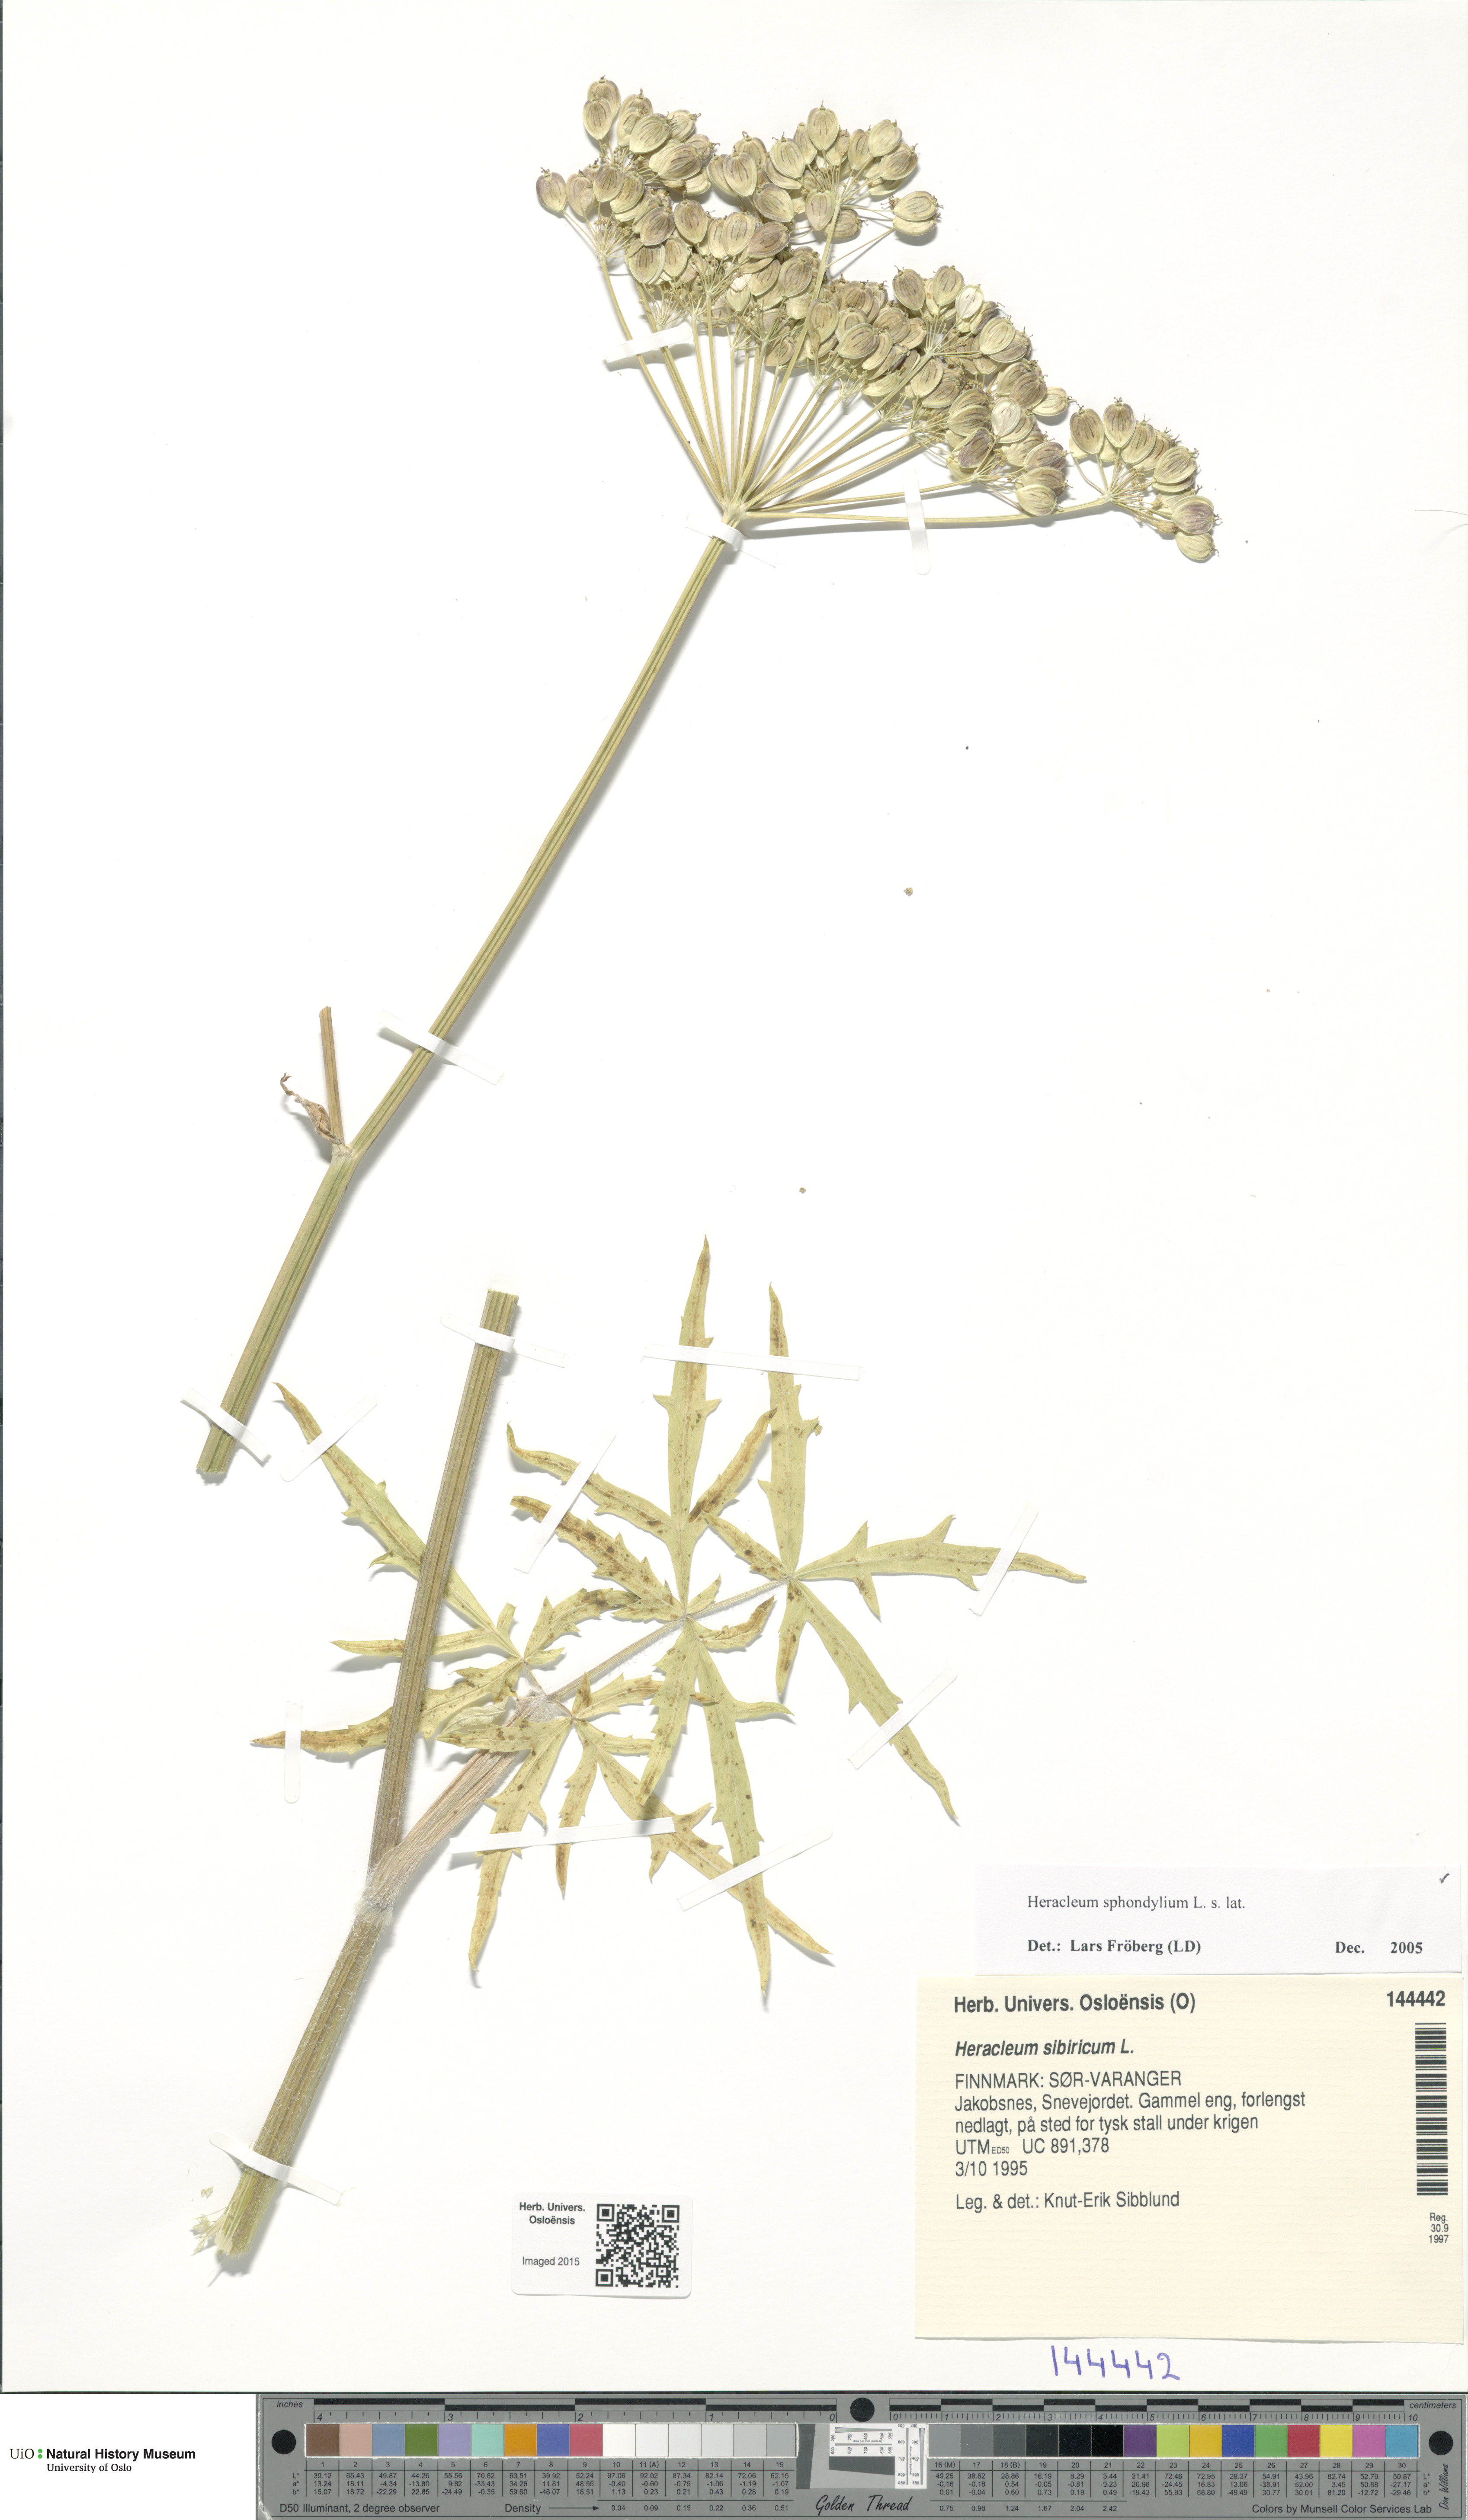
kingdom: Plantae
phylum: Tracheophyta
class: Magnoliopsida
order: Apiales
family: Apiaceae
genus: Heracleum
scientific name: Heracleum sphondylium
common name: Hogweed
